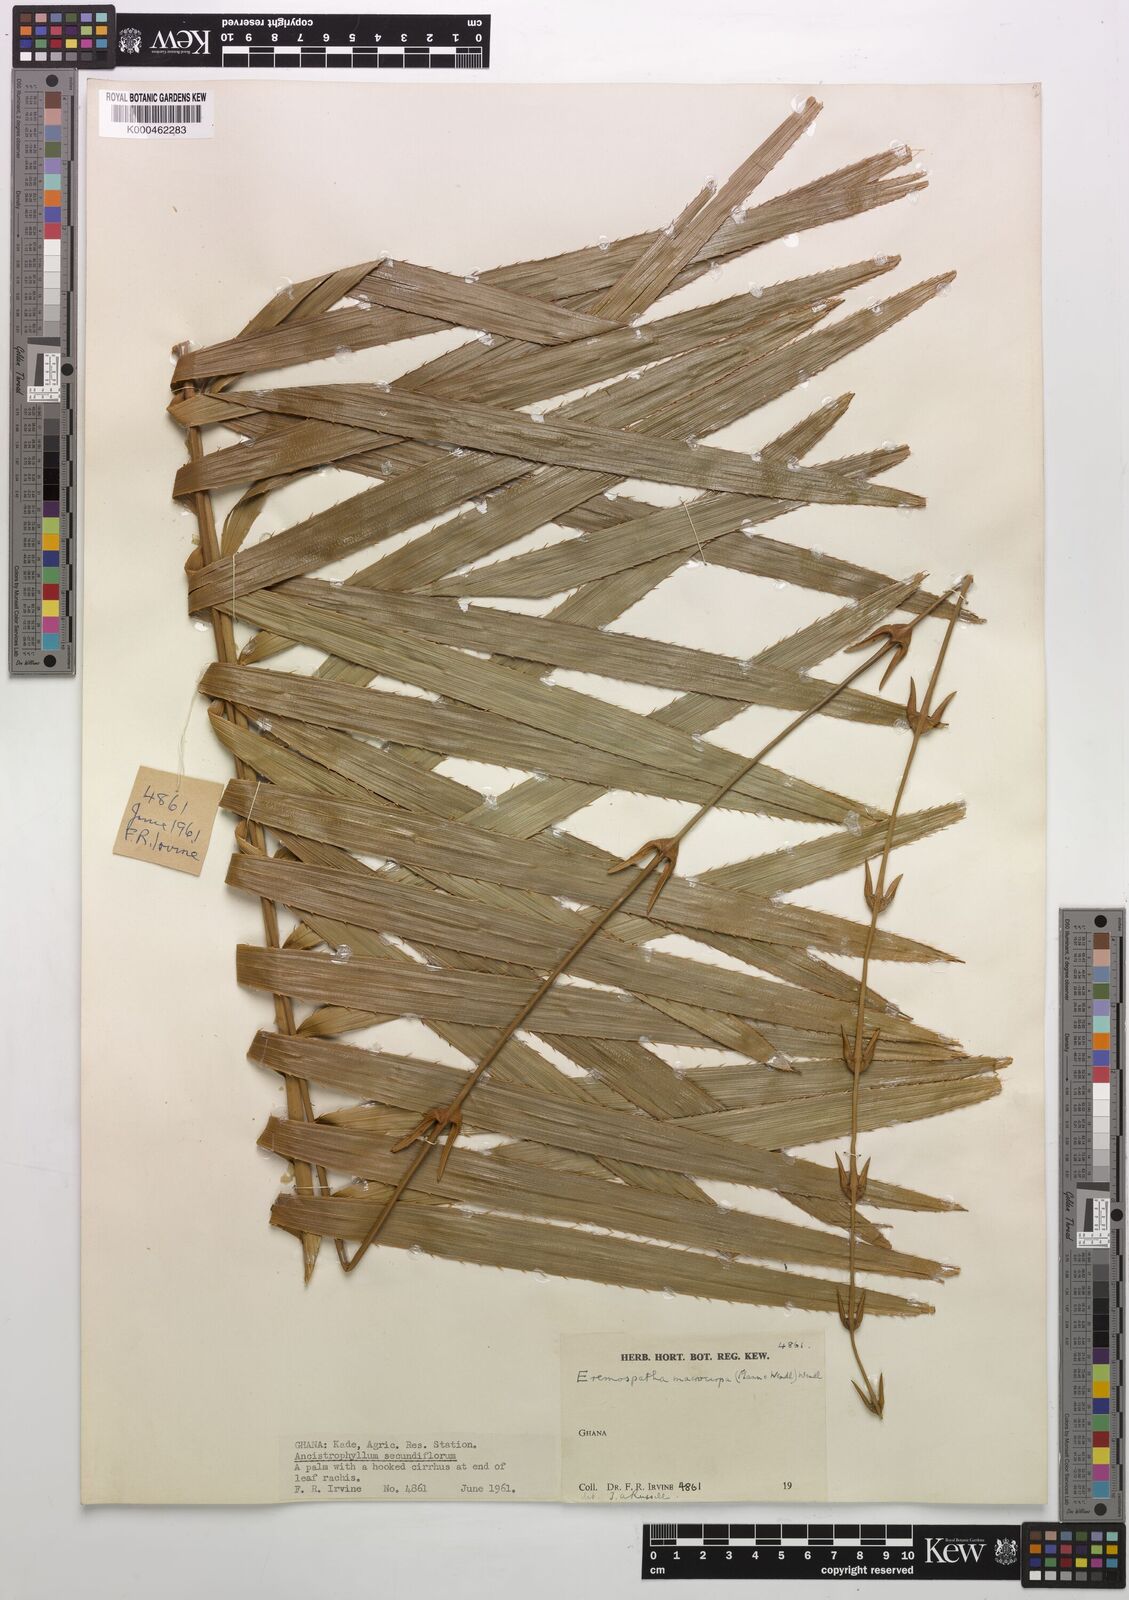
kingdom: Plantae
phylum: Tracheophyta
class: Liliopsida
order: Arecales
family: Arecaceae
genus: Eremospatha
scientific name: Eremospatha
